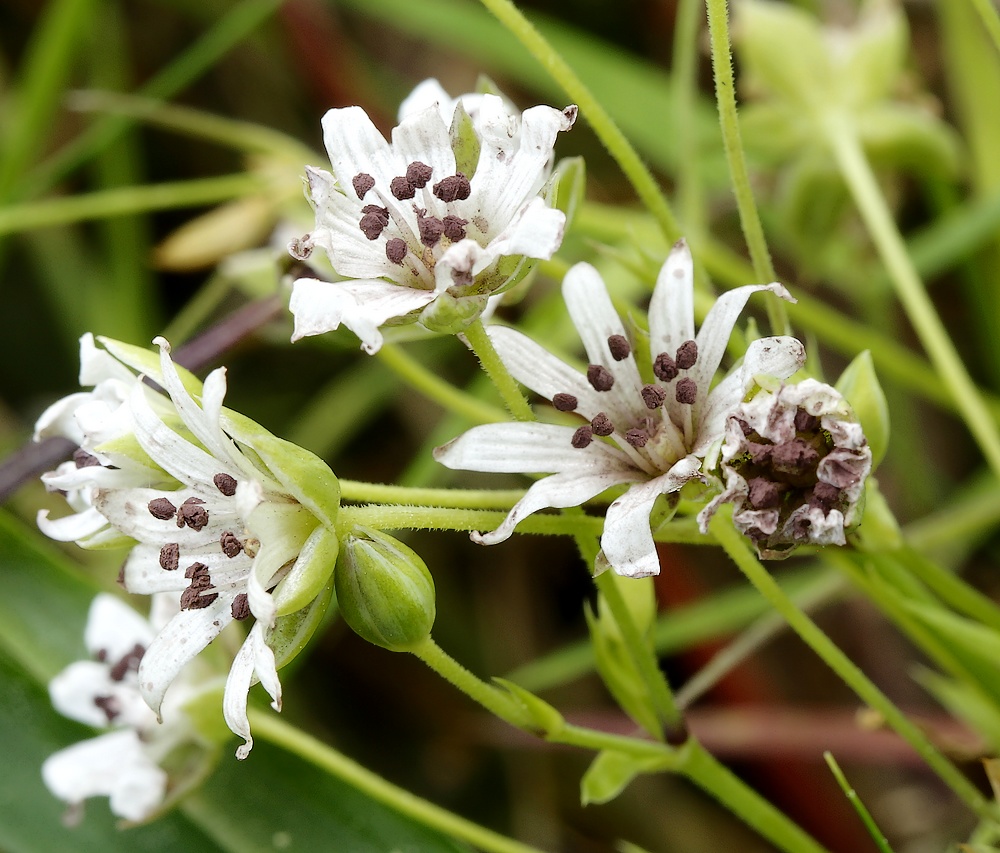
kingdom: Fungi
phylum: Basidiomycota
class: Microbotryomycetes
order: Microbotryales
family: Microbotryaceae
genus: Microbotryum
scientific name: Microbotryum stellariae
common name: fladstjerne-støvbladrust
